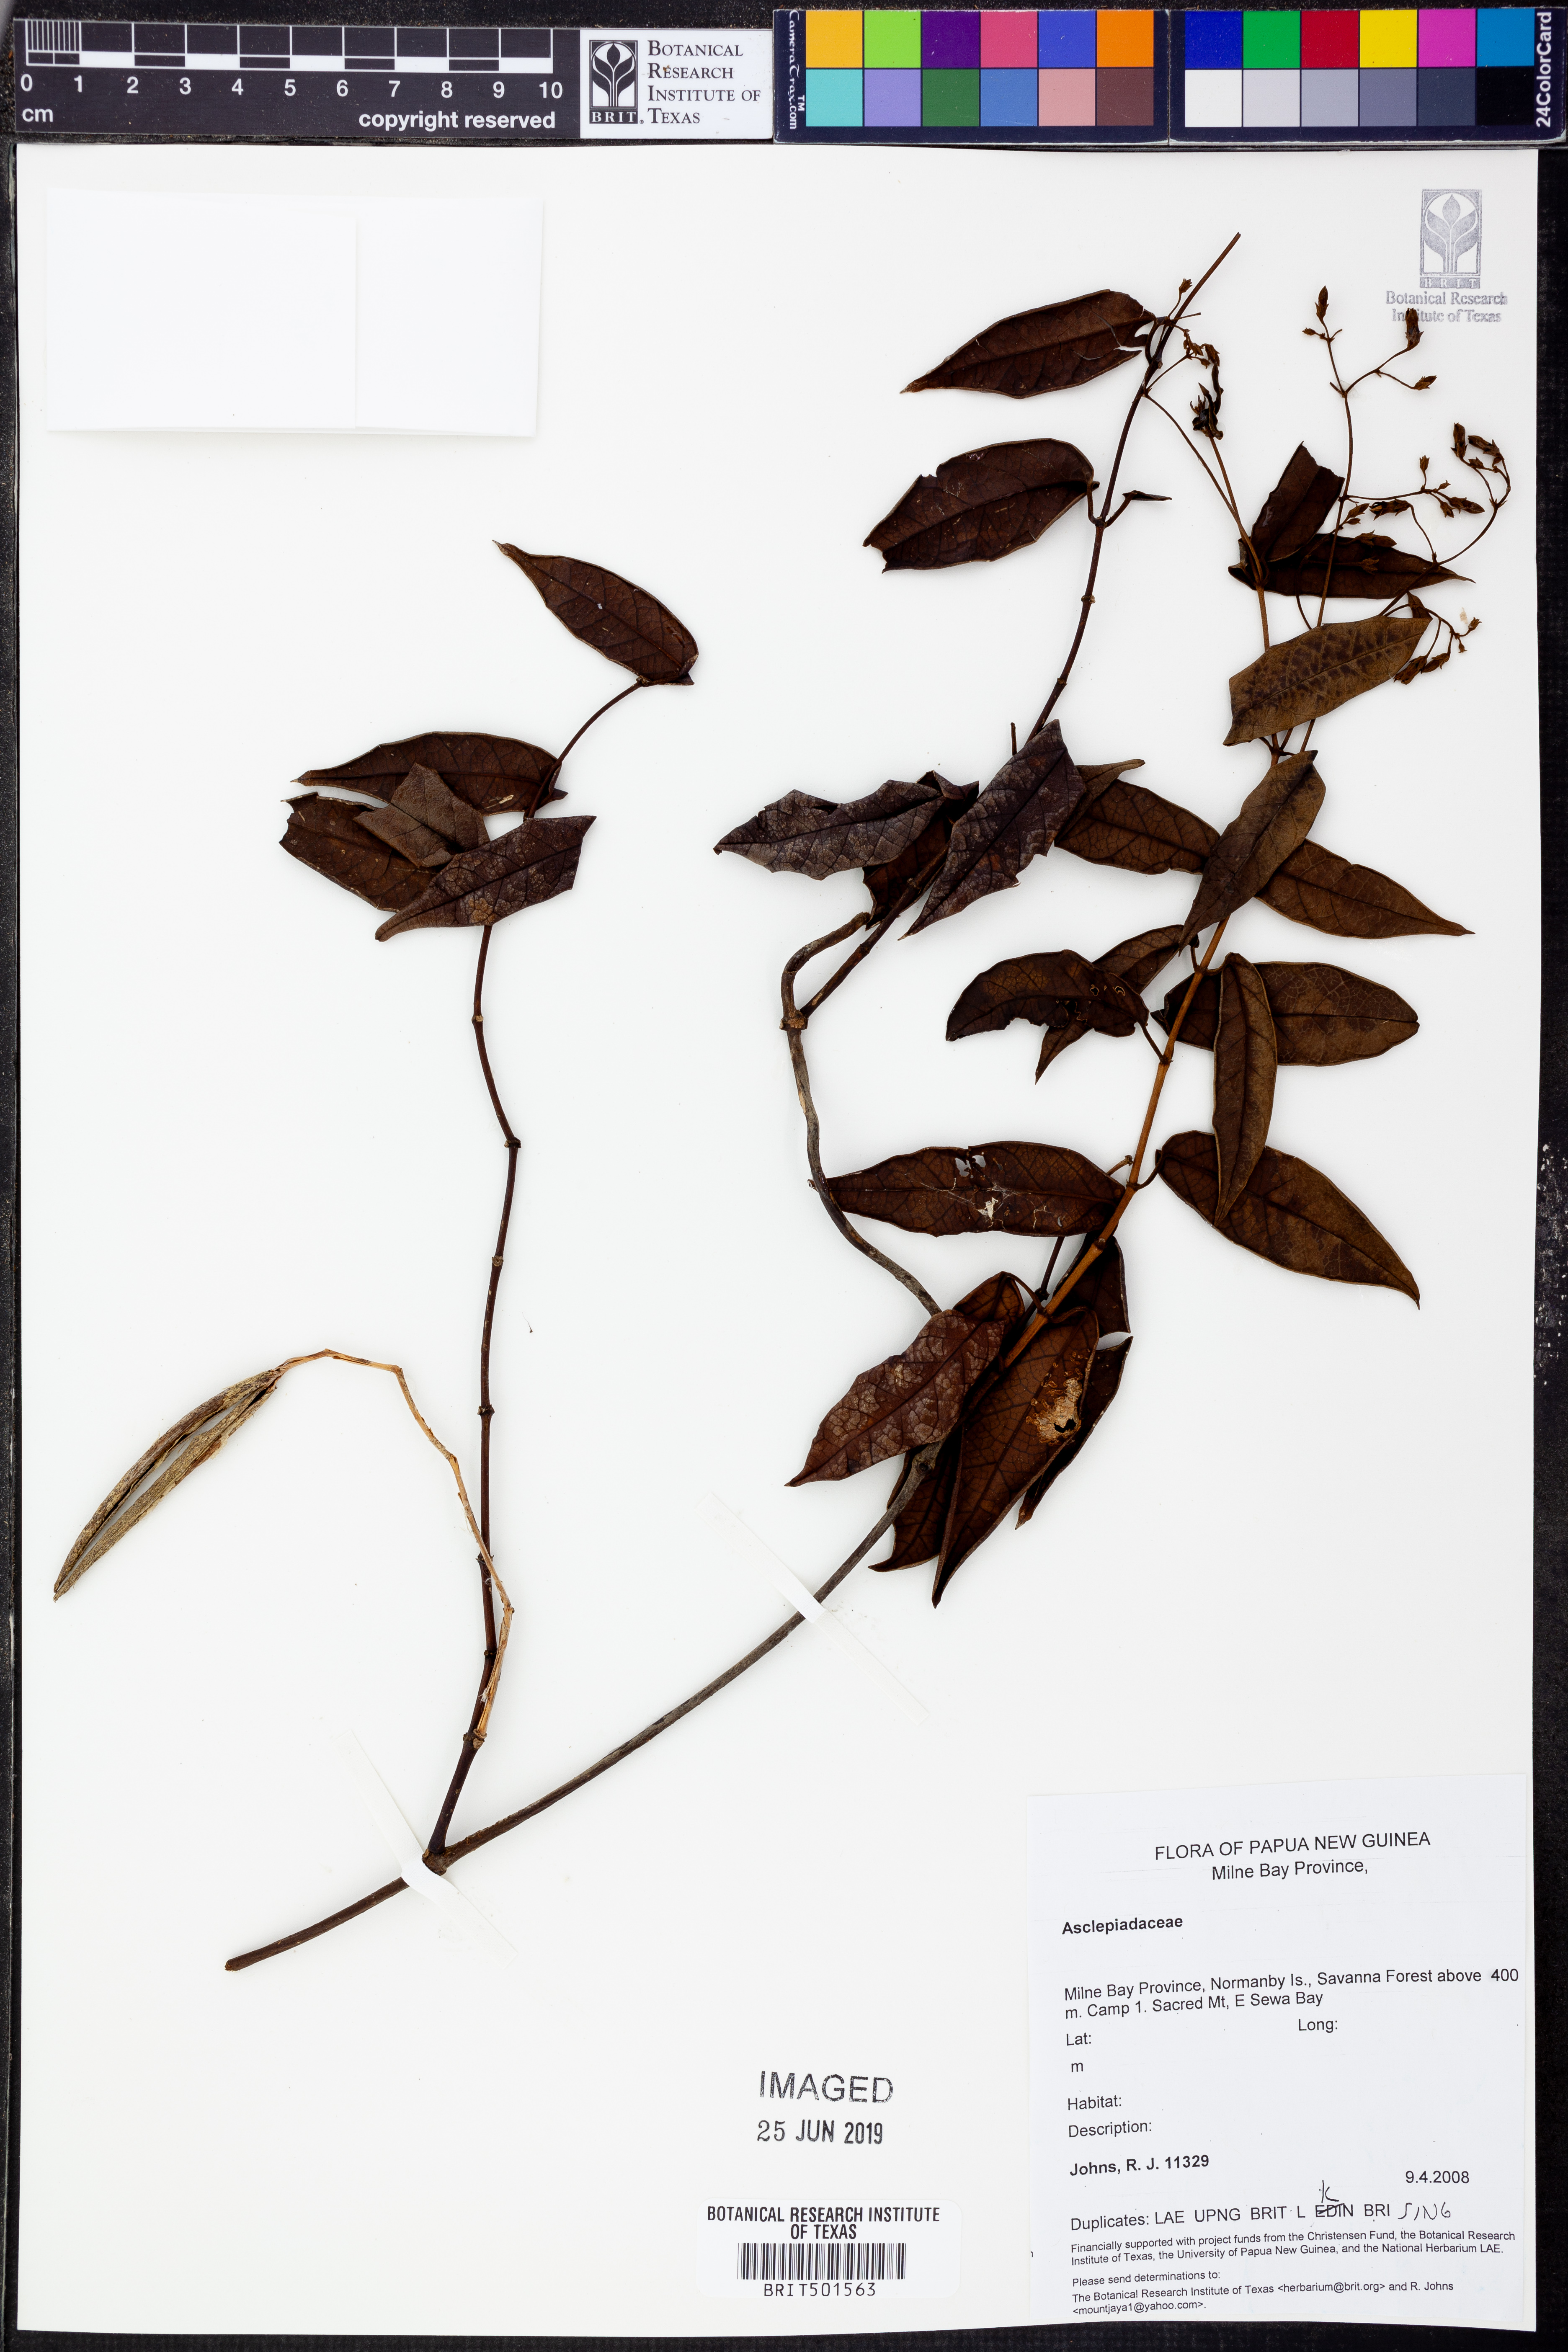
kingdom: Plantae
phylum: Tracheophyta
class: Magnoliopsida
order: Gentianales
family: Apocynaceae
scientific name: Apocynaceae
